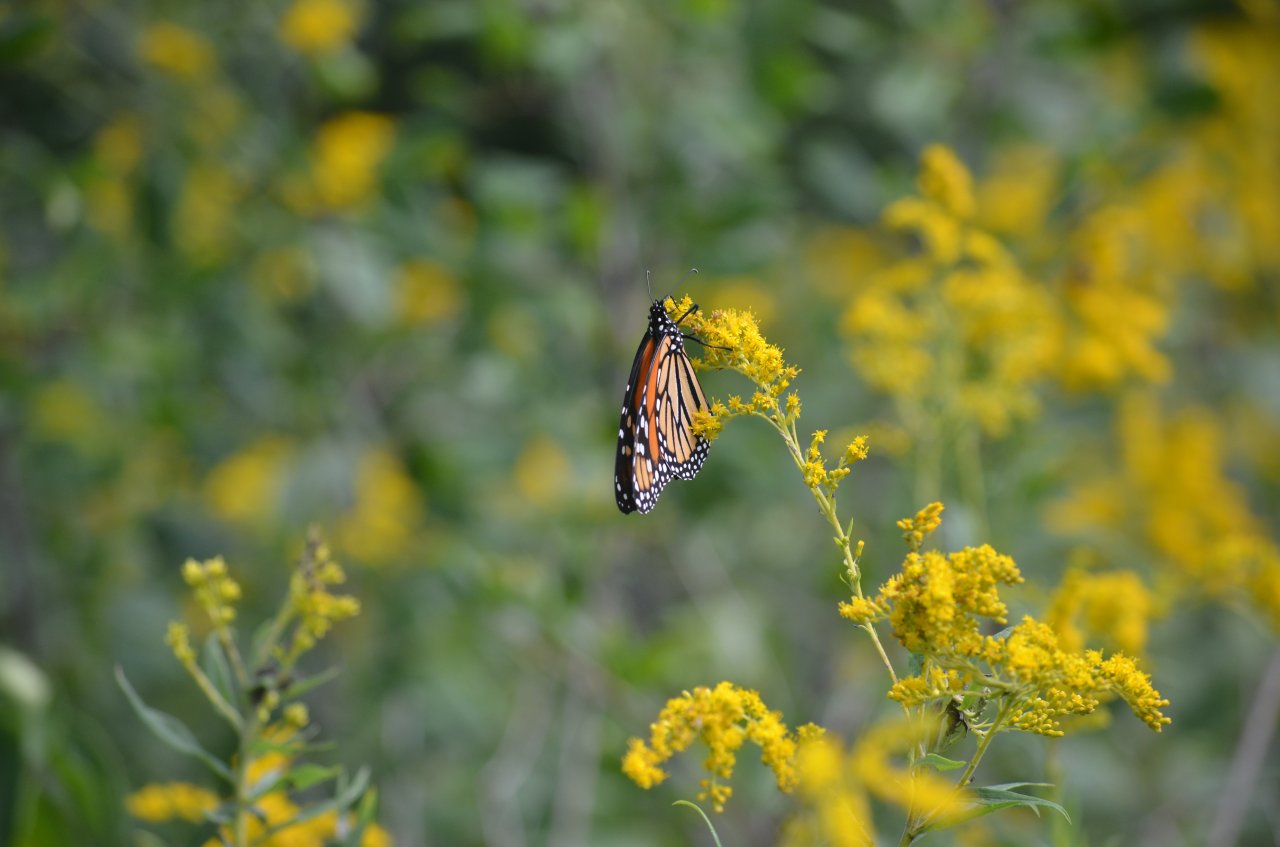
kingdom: Animalia
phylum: Arthropoda
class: Insecta
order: Lepidoptera
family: Nymphalidae
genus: Danaus
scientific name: Danaus plexippus
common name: Monarch
